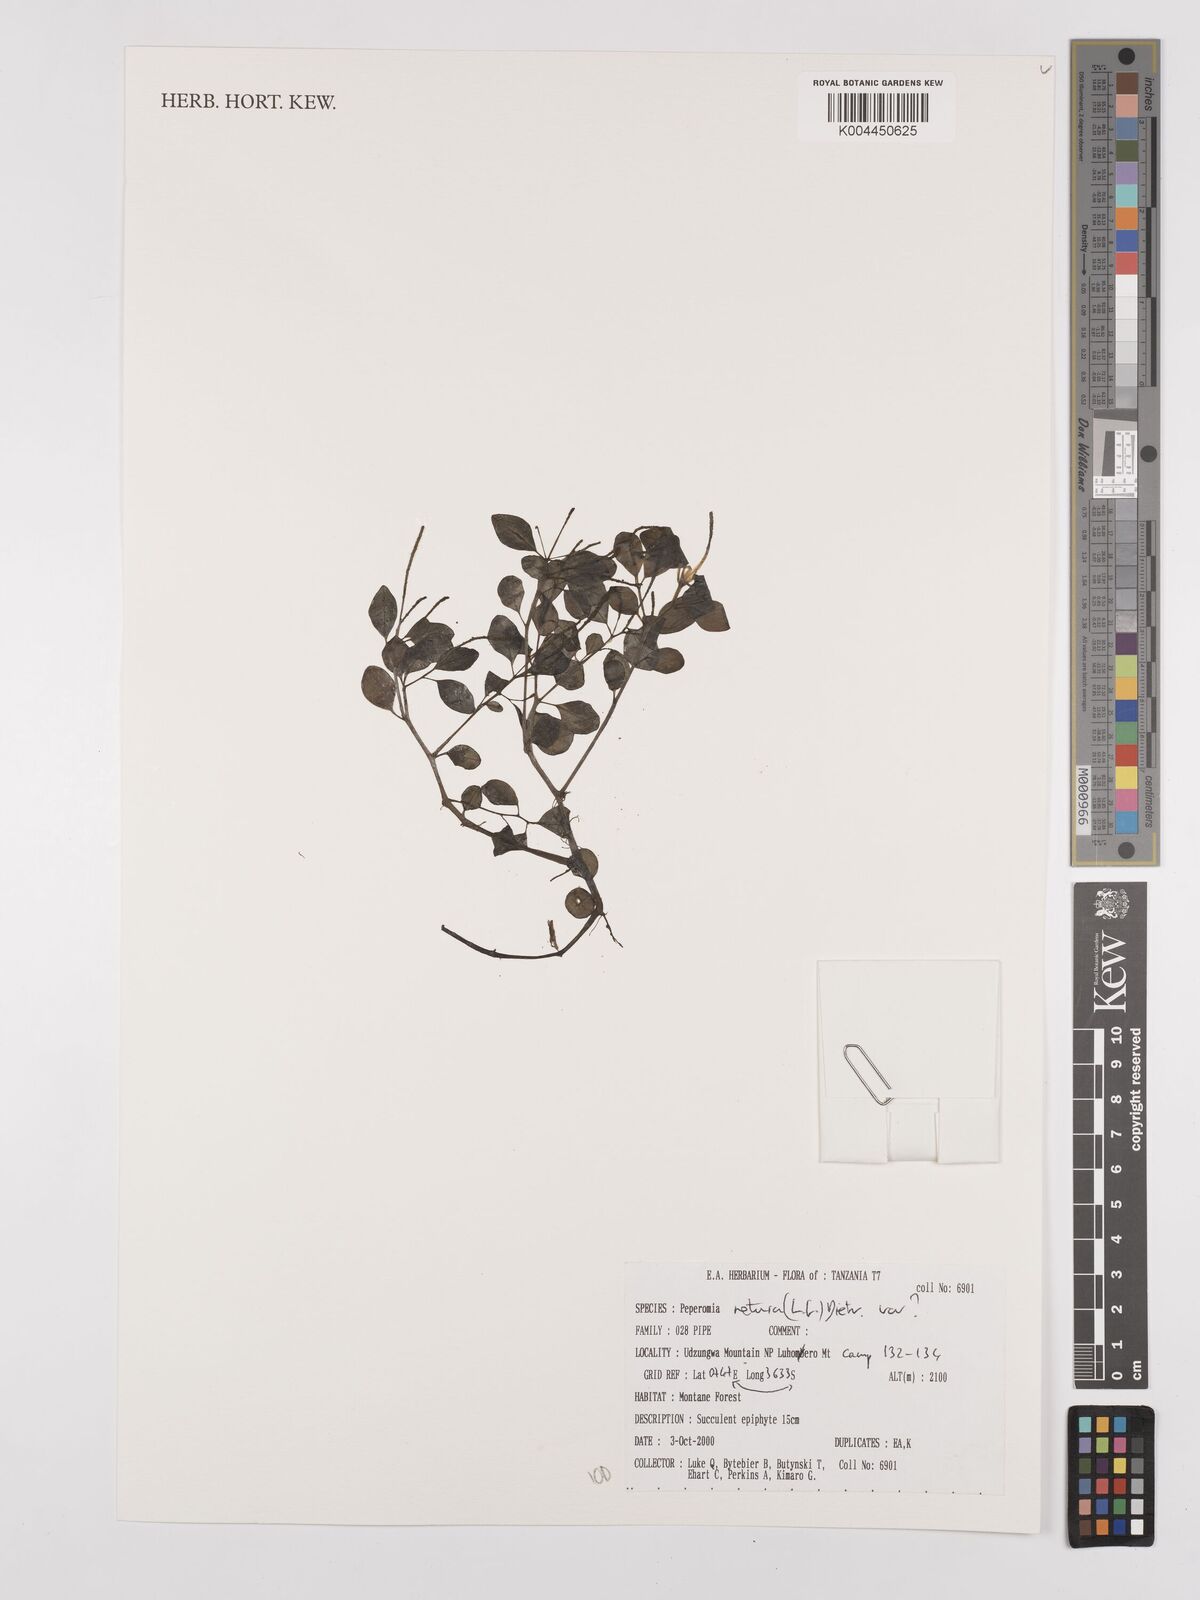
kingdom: Plantae
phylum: Tracheophyta
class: Magnoliopsida
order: Piperales
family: Piperaceae
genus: Peperomia
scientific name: Peperomia retusa
